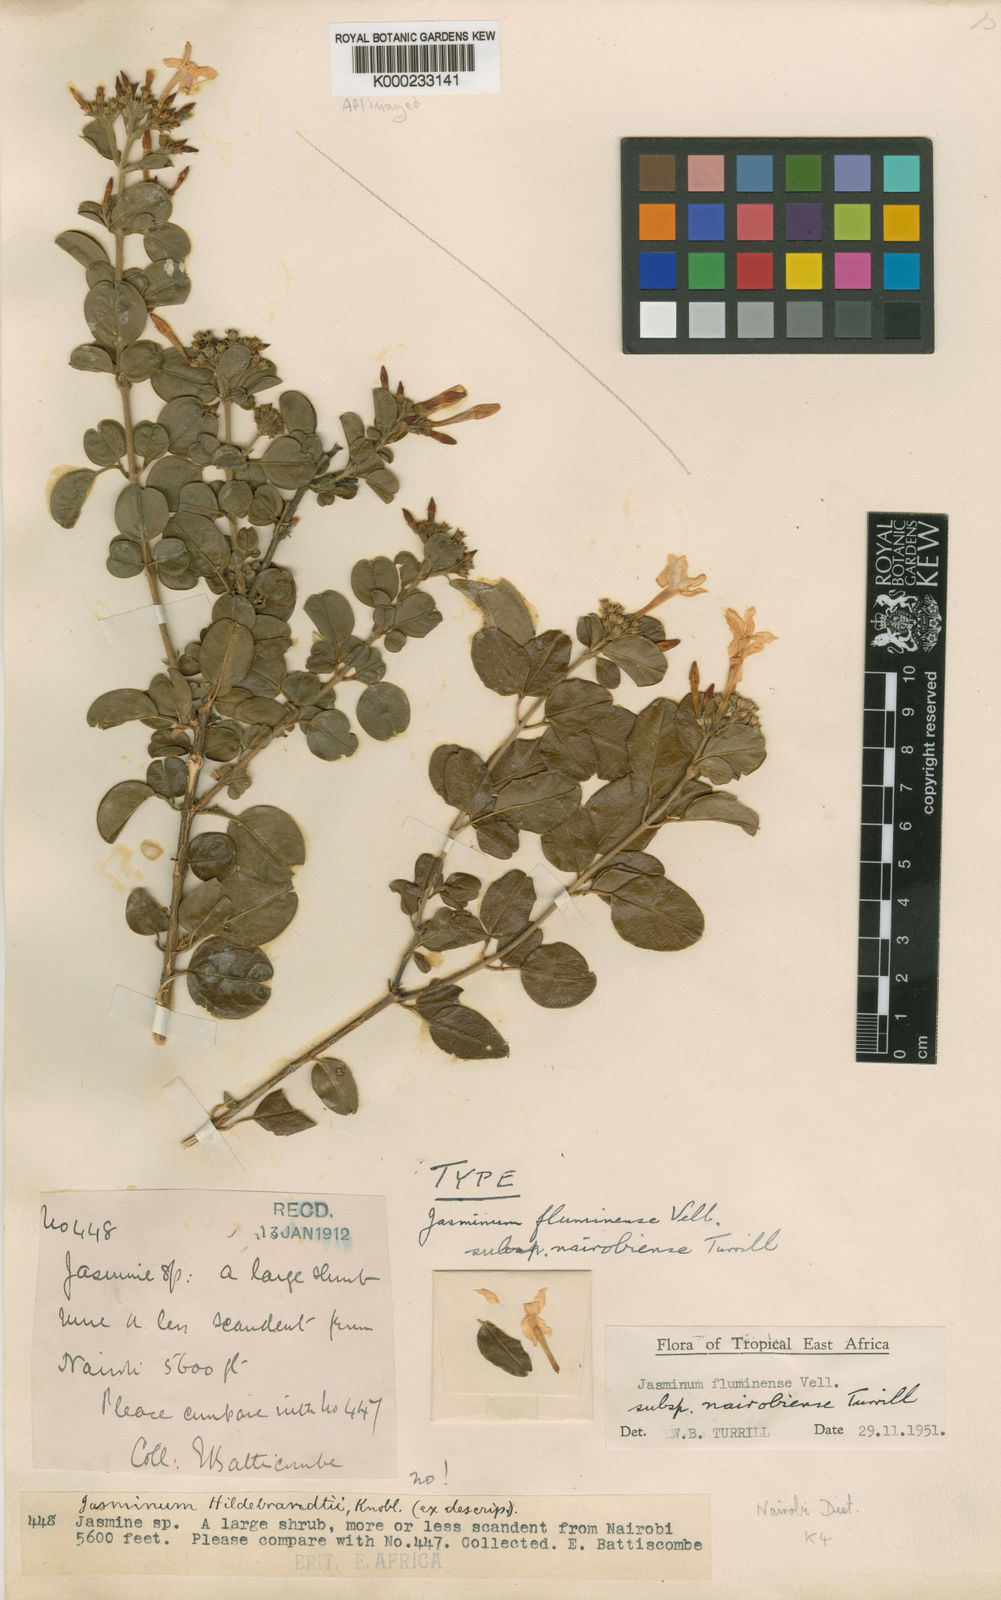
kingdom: Plantae
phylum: Tracheophyta
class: Magnoliopsida
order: Lamiales
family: Oleaceae
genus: Jasminum
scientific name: Jasminum fluminense
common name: Brazilian jasmine
